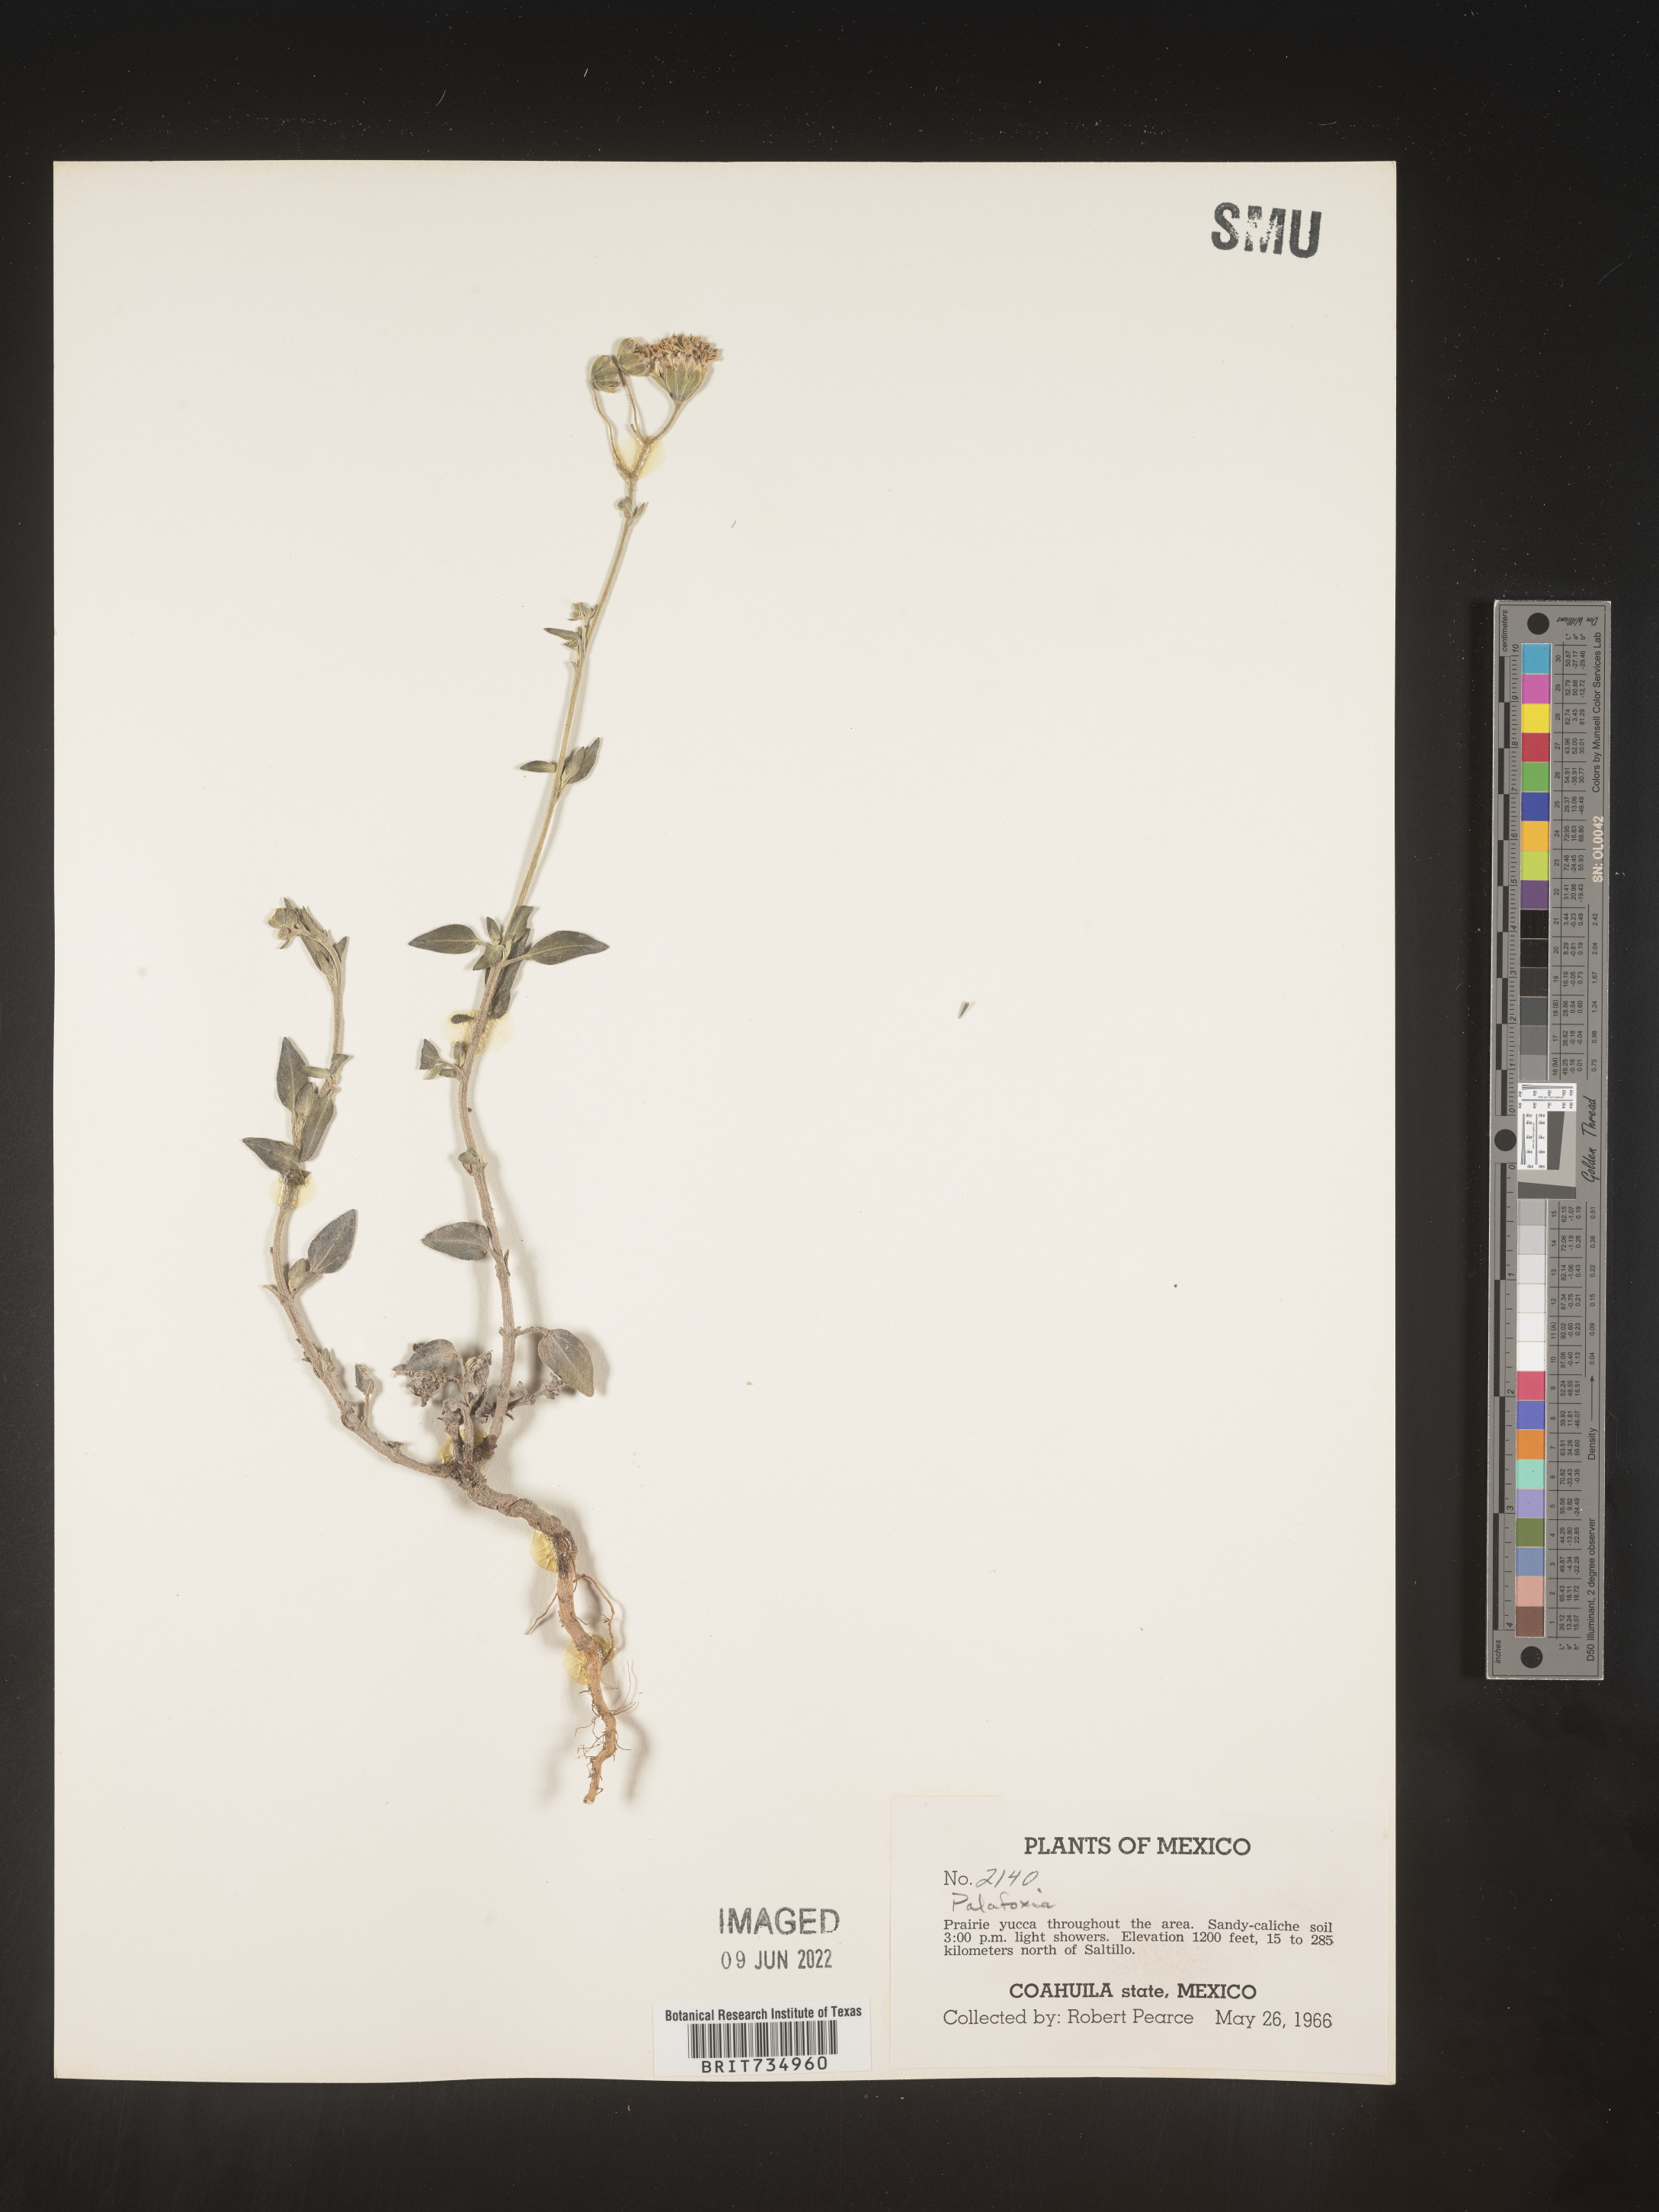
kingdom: Plantae
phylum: Tracheophyta
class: Magnoliopsida
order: Asterales
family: Asteraceae
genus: Palafoxia
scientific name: Palafoxia
